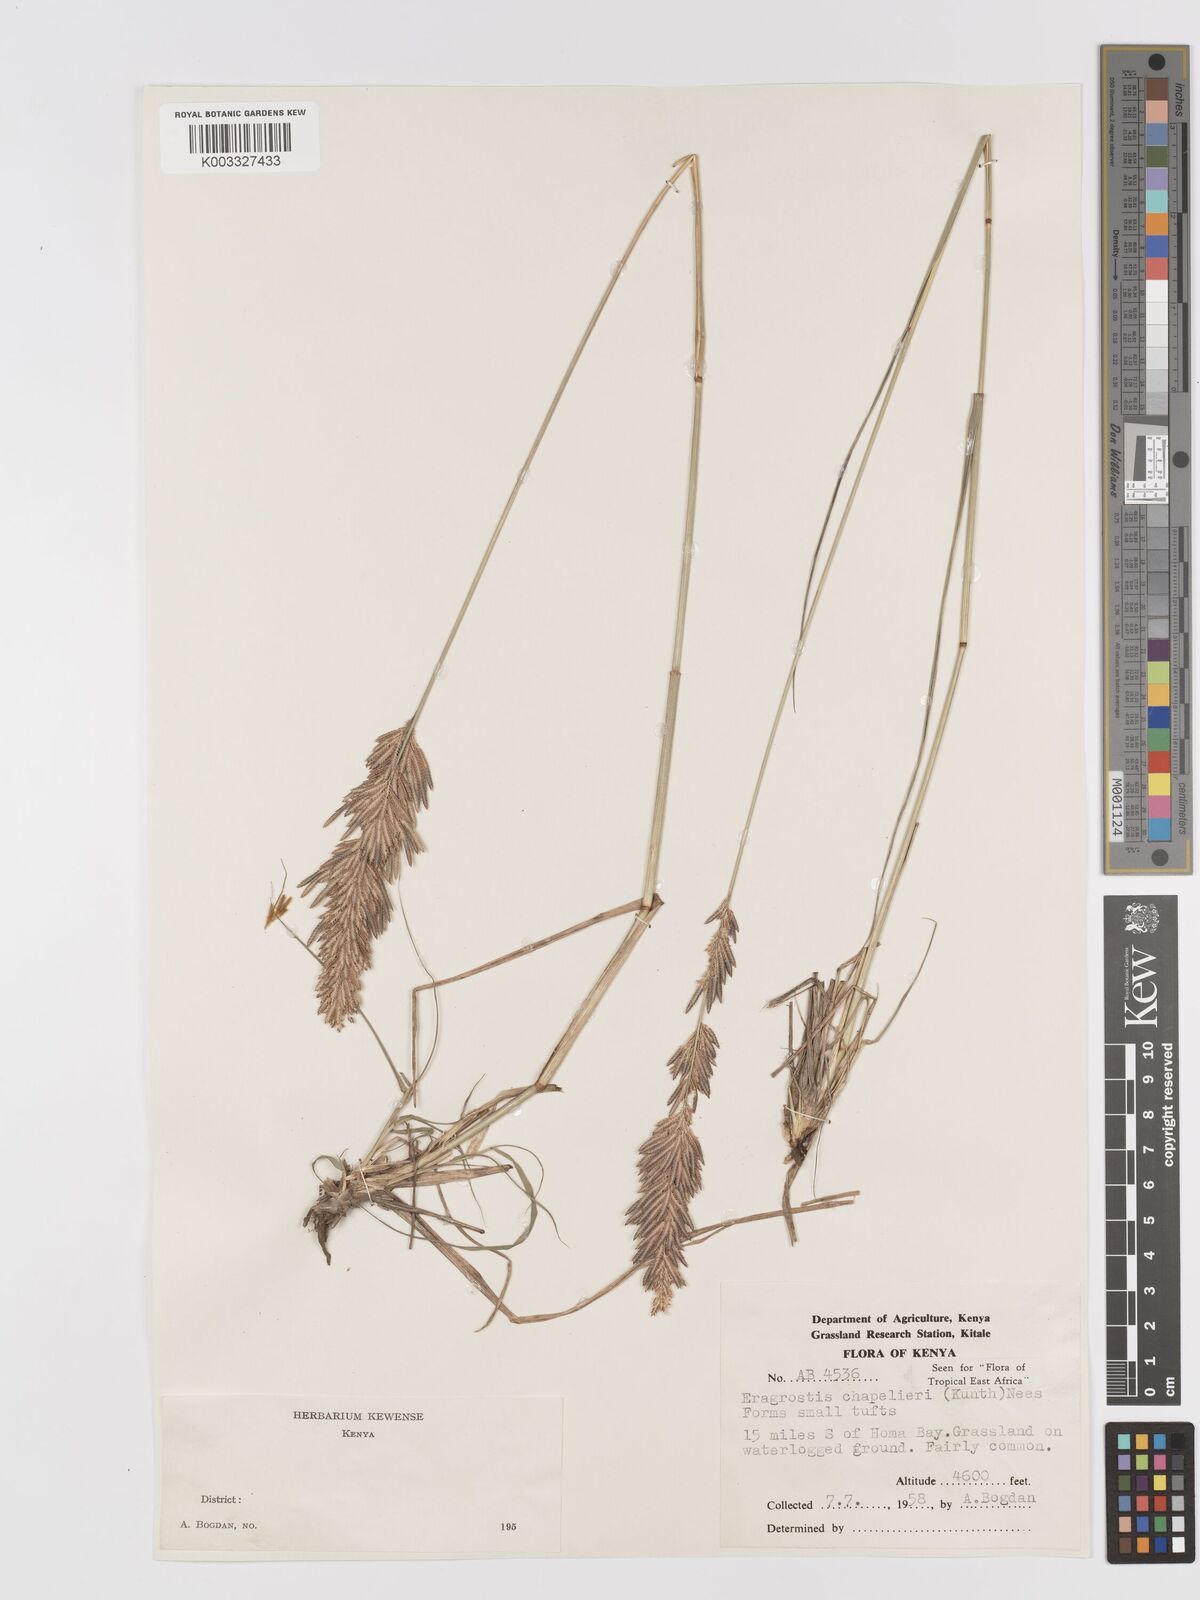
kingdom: Plantae
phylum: Tracheophyta
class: Liliopsida
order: Poales
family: Poaceae
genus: Eragrostis
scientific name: Eragrostis chapelieri
